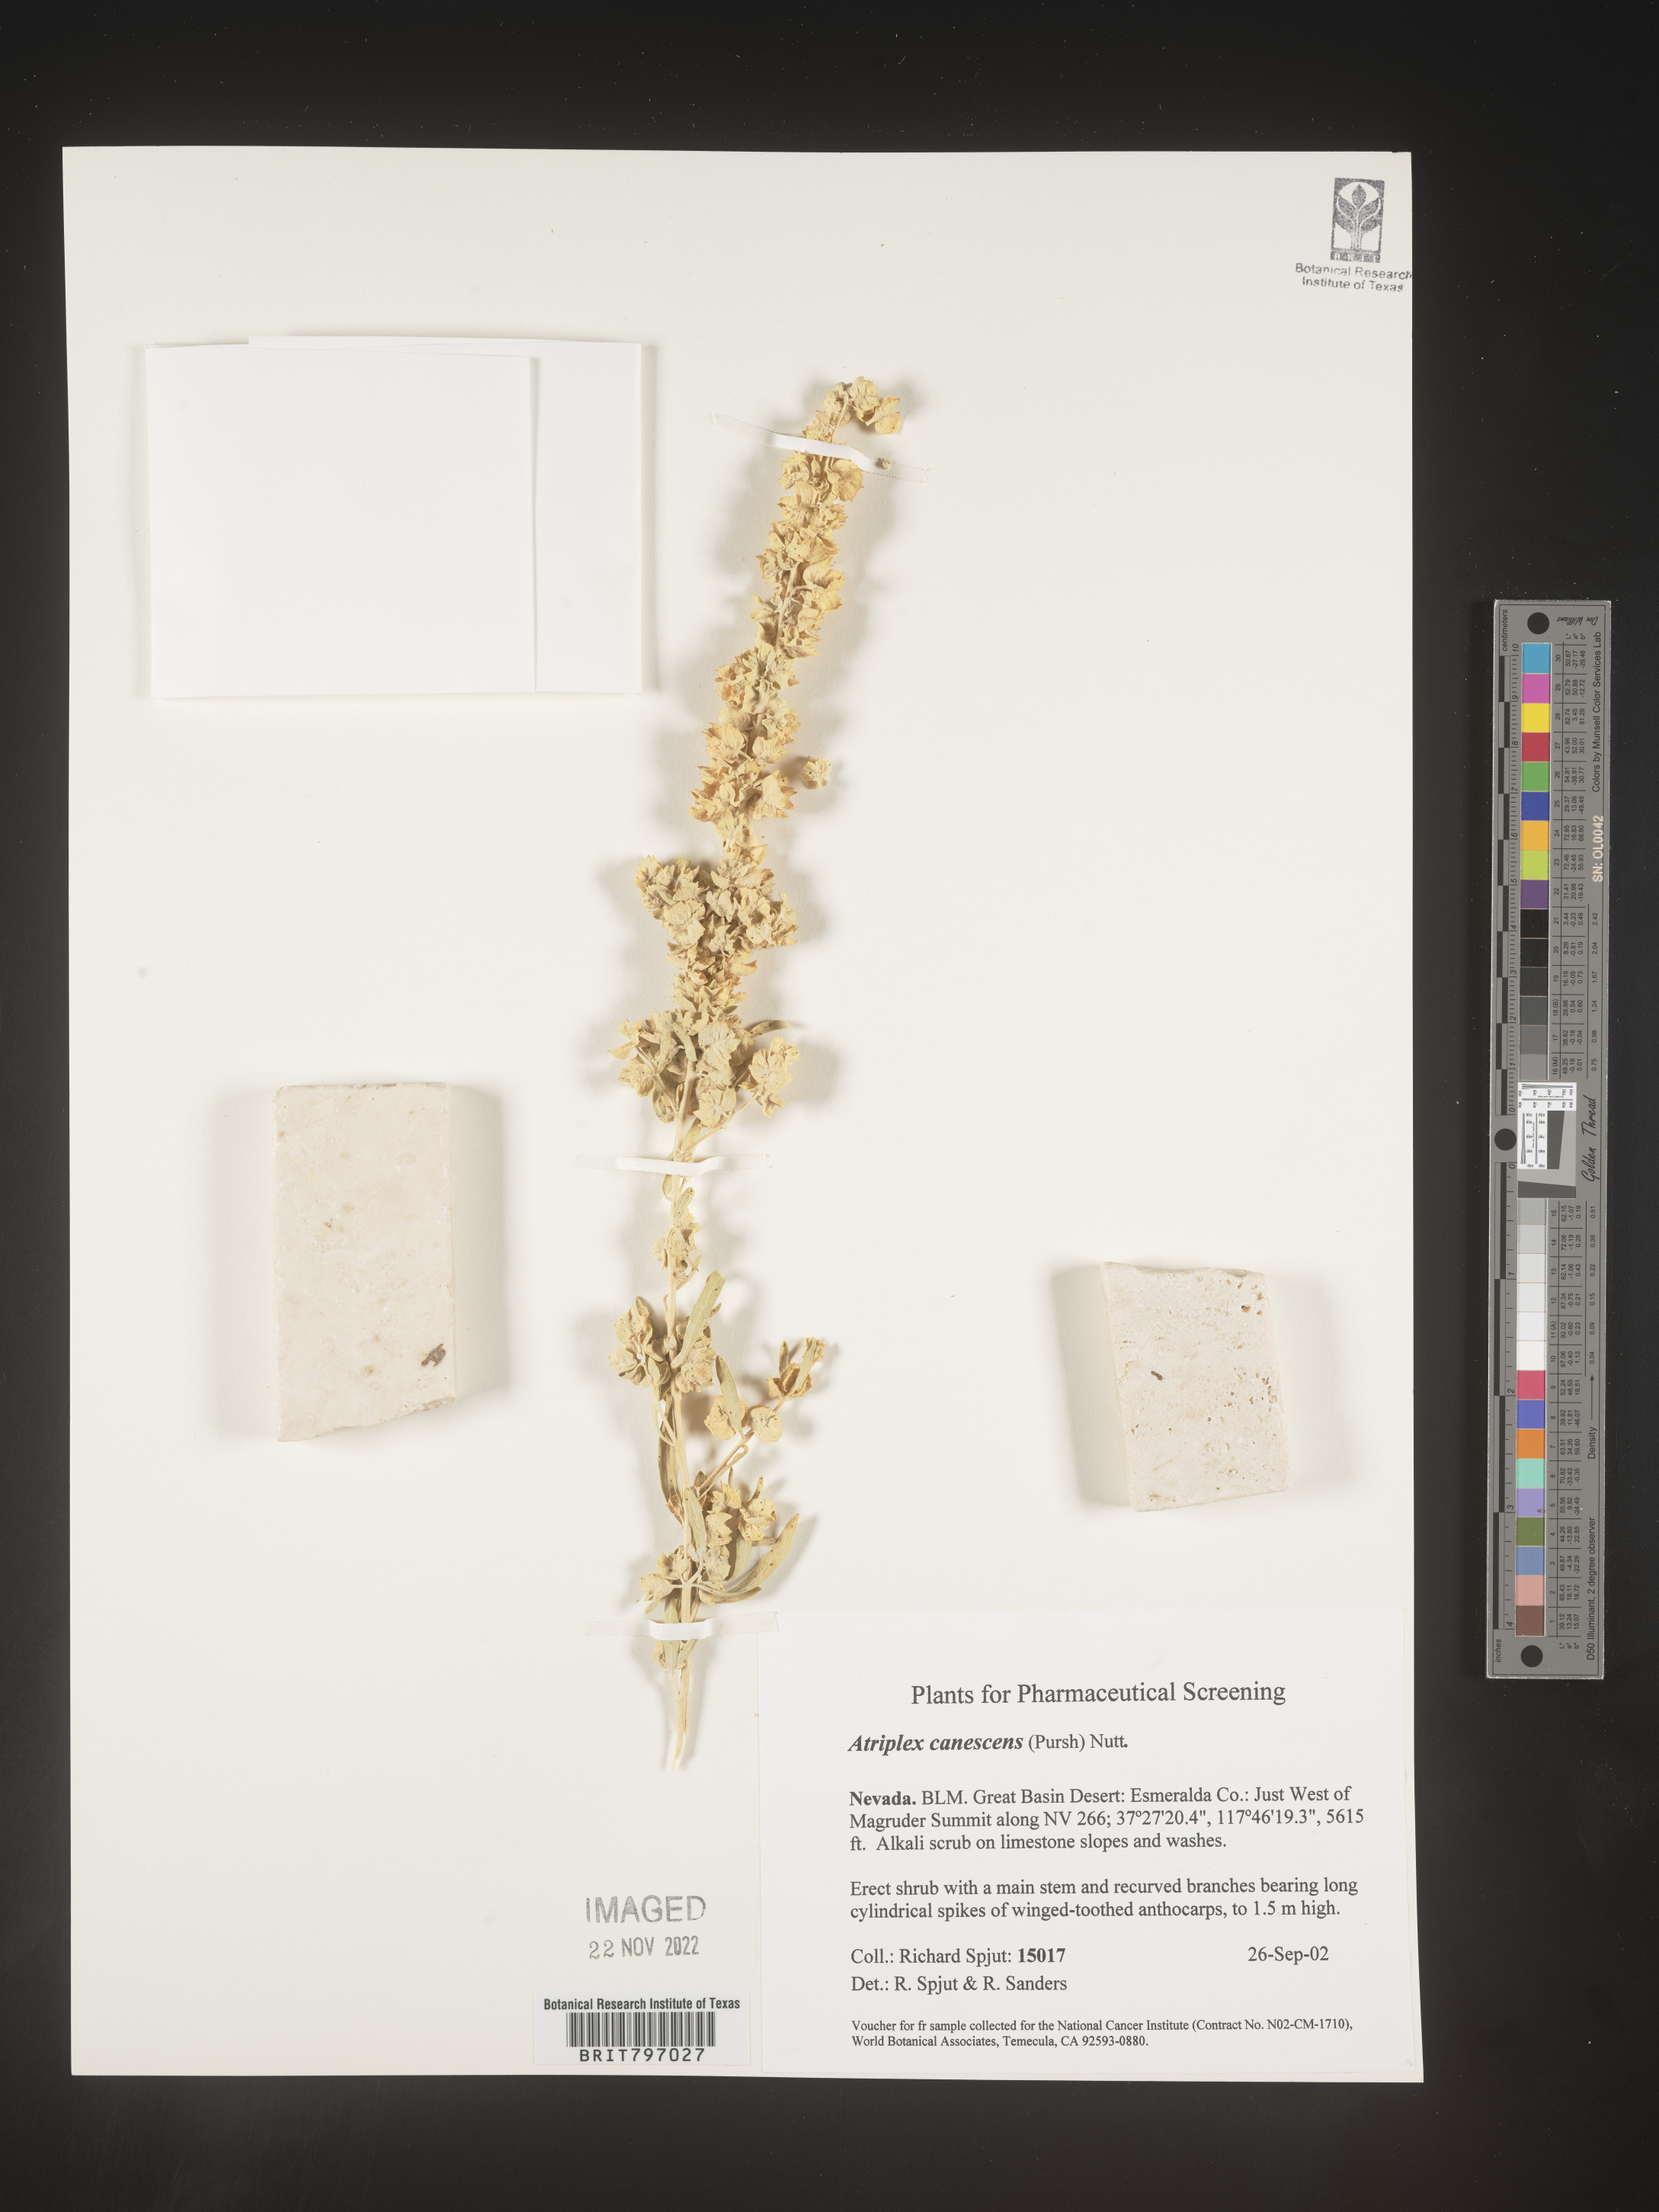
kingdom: Plantae
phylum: Tracheophyta
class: Magnoliopsida
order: Caryophyllales
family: Amaranthaceae
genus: Atriplex
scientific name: Atriplex canescens
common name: Four-wing saltbush
